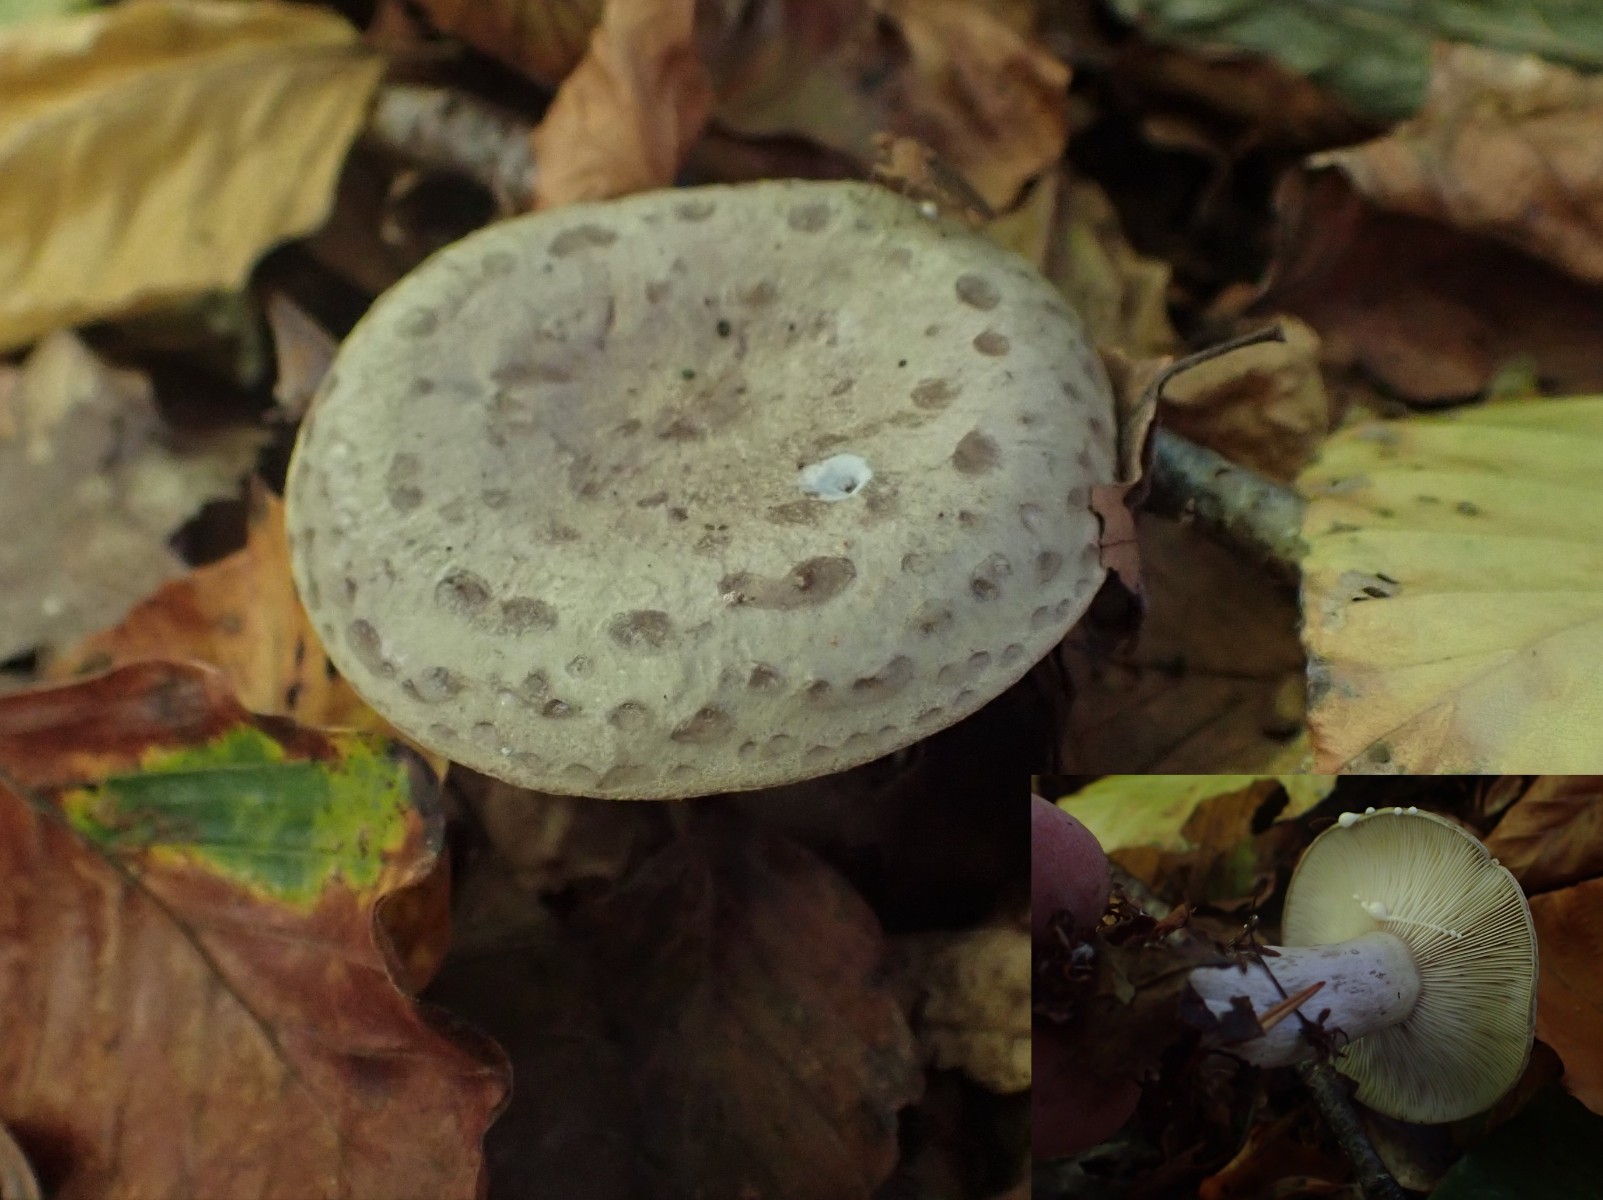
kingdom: Fungi
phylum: Basidiomycota
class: Agaricomycetes
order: Russulales
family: Russulaceae
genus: Lactarius
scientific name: Lactarius blennius
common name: dråbeplettet mælkehat
